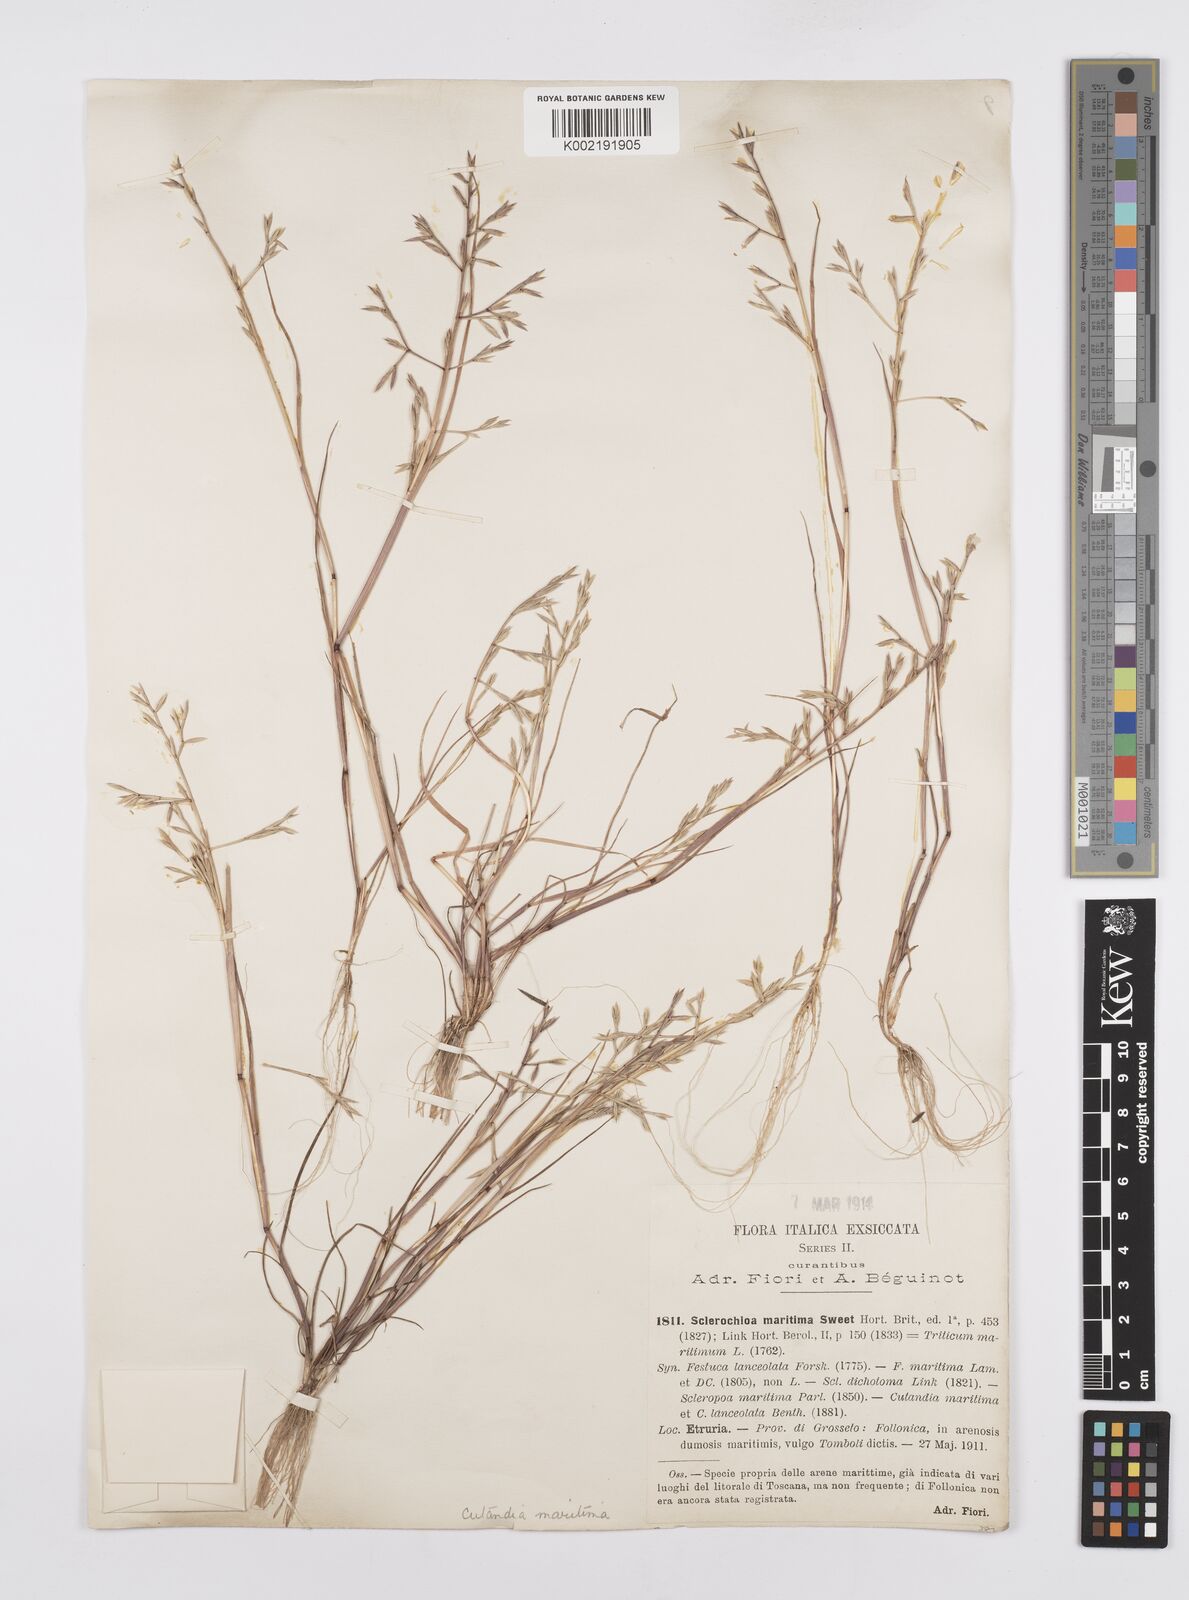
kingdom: Plantae
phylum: Tracheophyta
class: Liliopsida
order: Poales
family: Poaceae
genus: Cutandia
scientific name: Cutandia maritima
